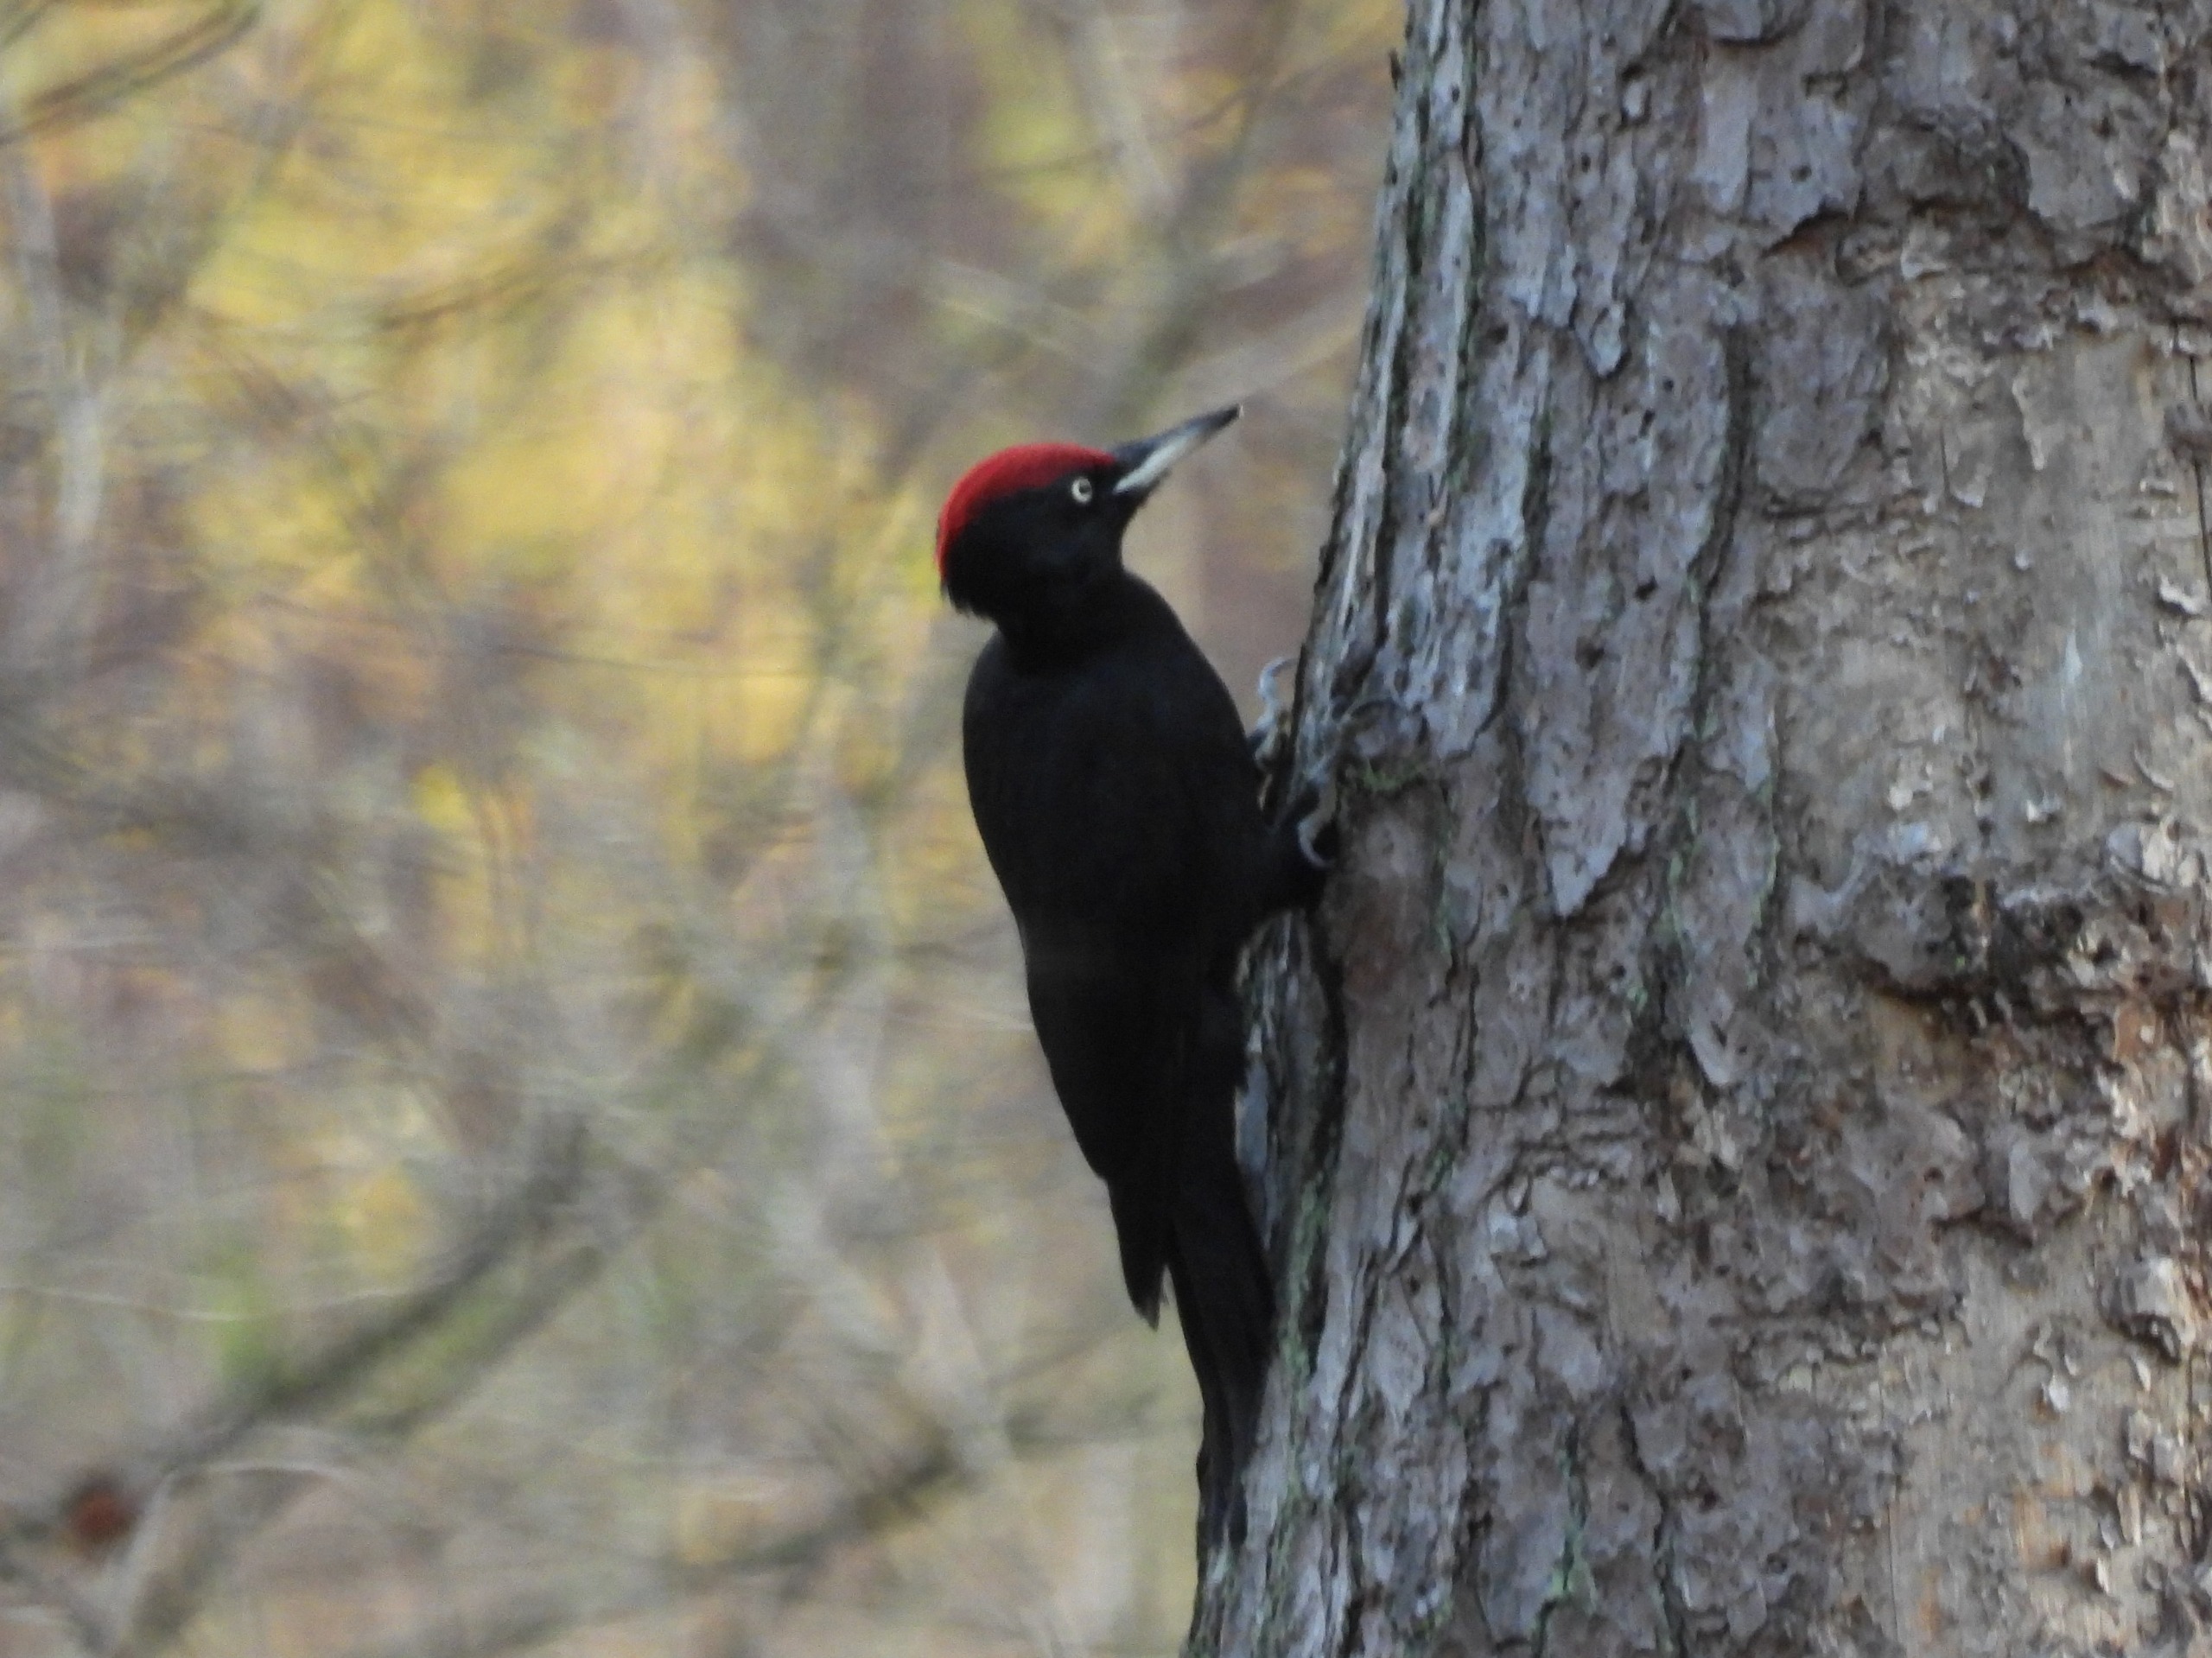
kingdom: Animalia
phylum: Chordata
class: Aves
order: Piciformes
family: Picidae
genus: Dryocopus
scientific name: Dryocopus martius
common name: Sortspætte
